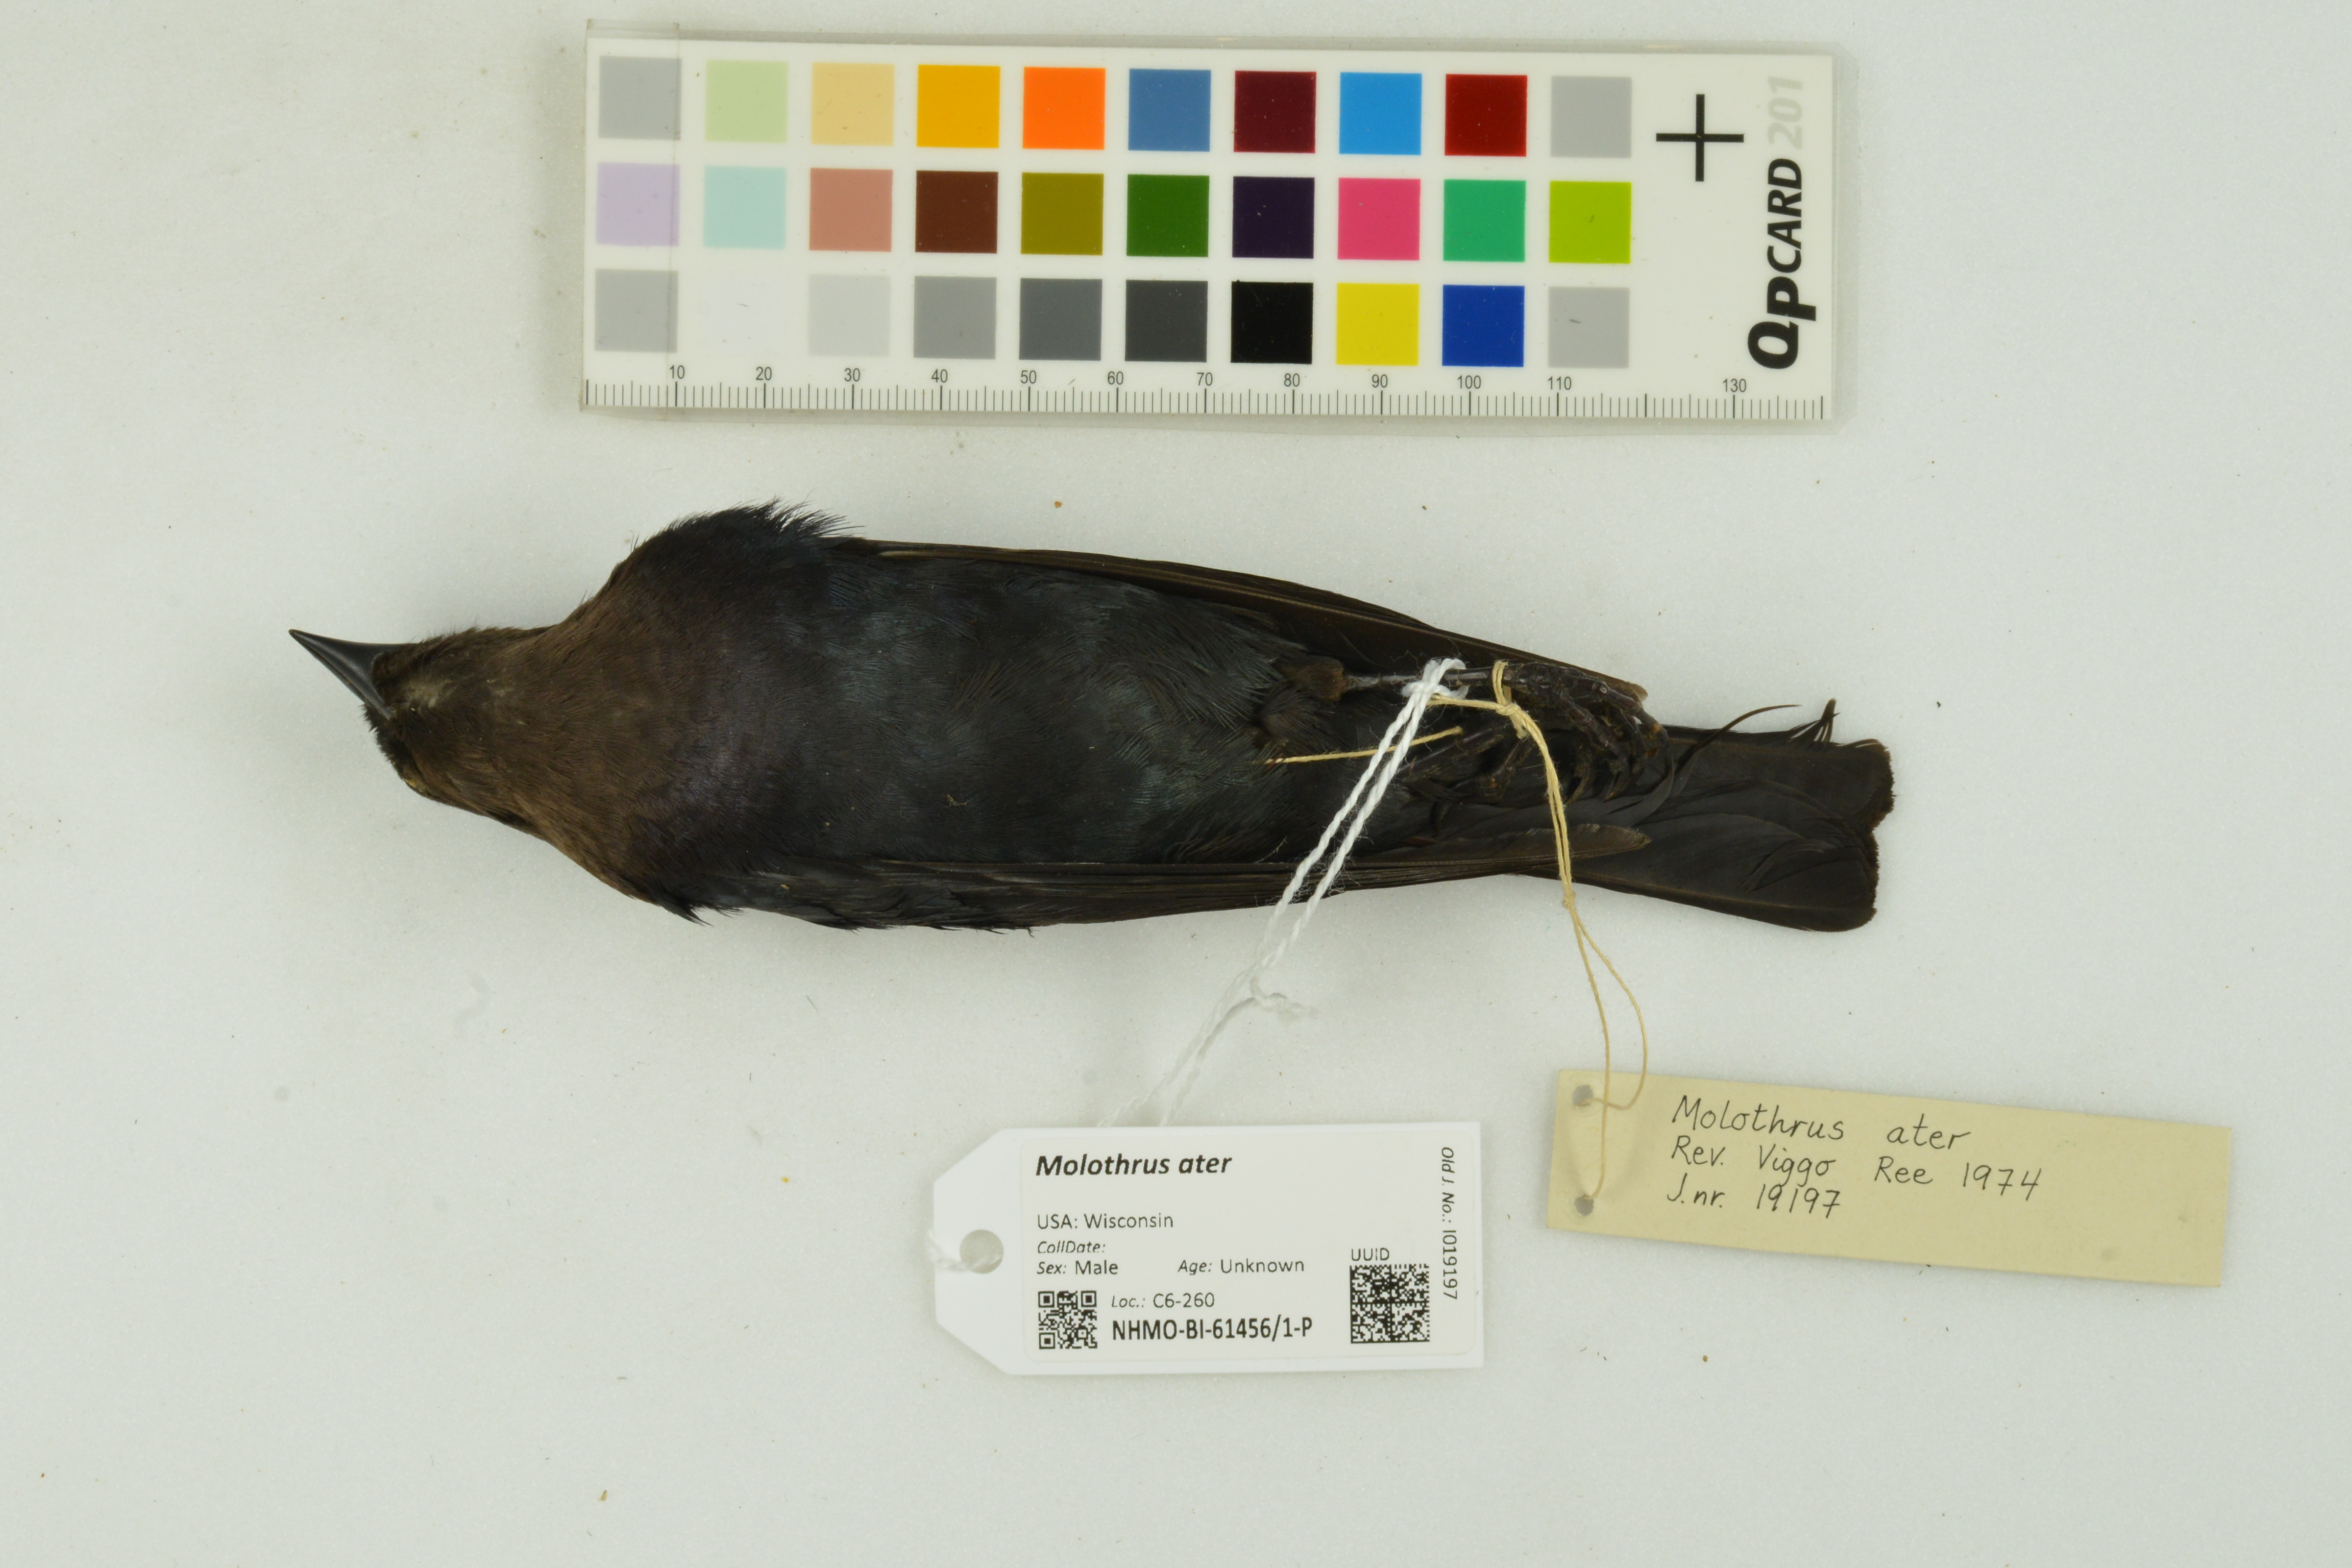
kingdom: Animalia
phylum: Chordata
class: Aves
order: Passeriformes
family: Icteridae
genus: Molothrus
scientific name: Molothrus ater
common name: Brown-headed cowbird
